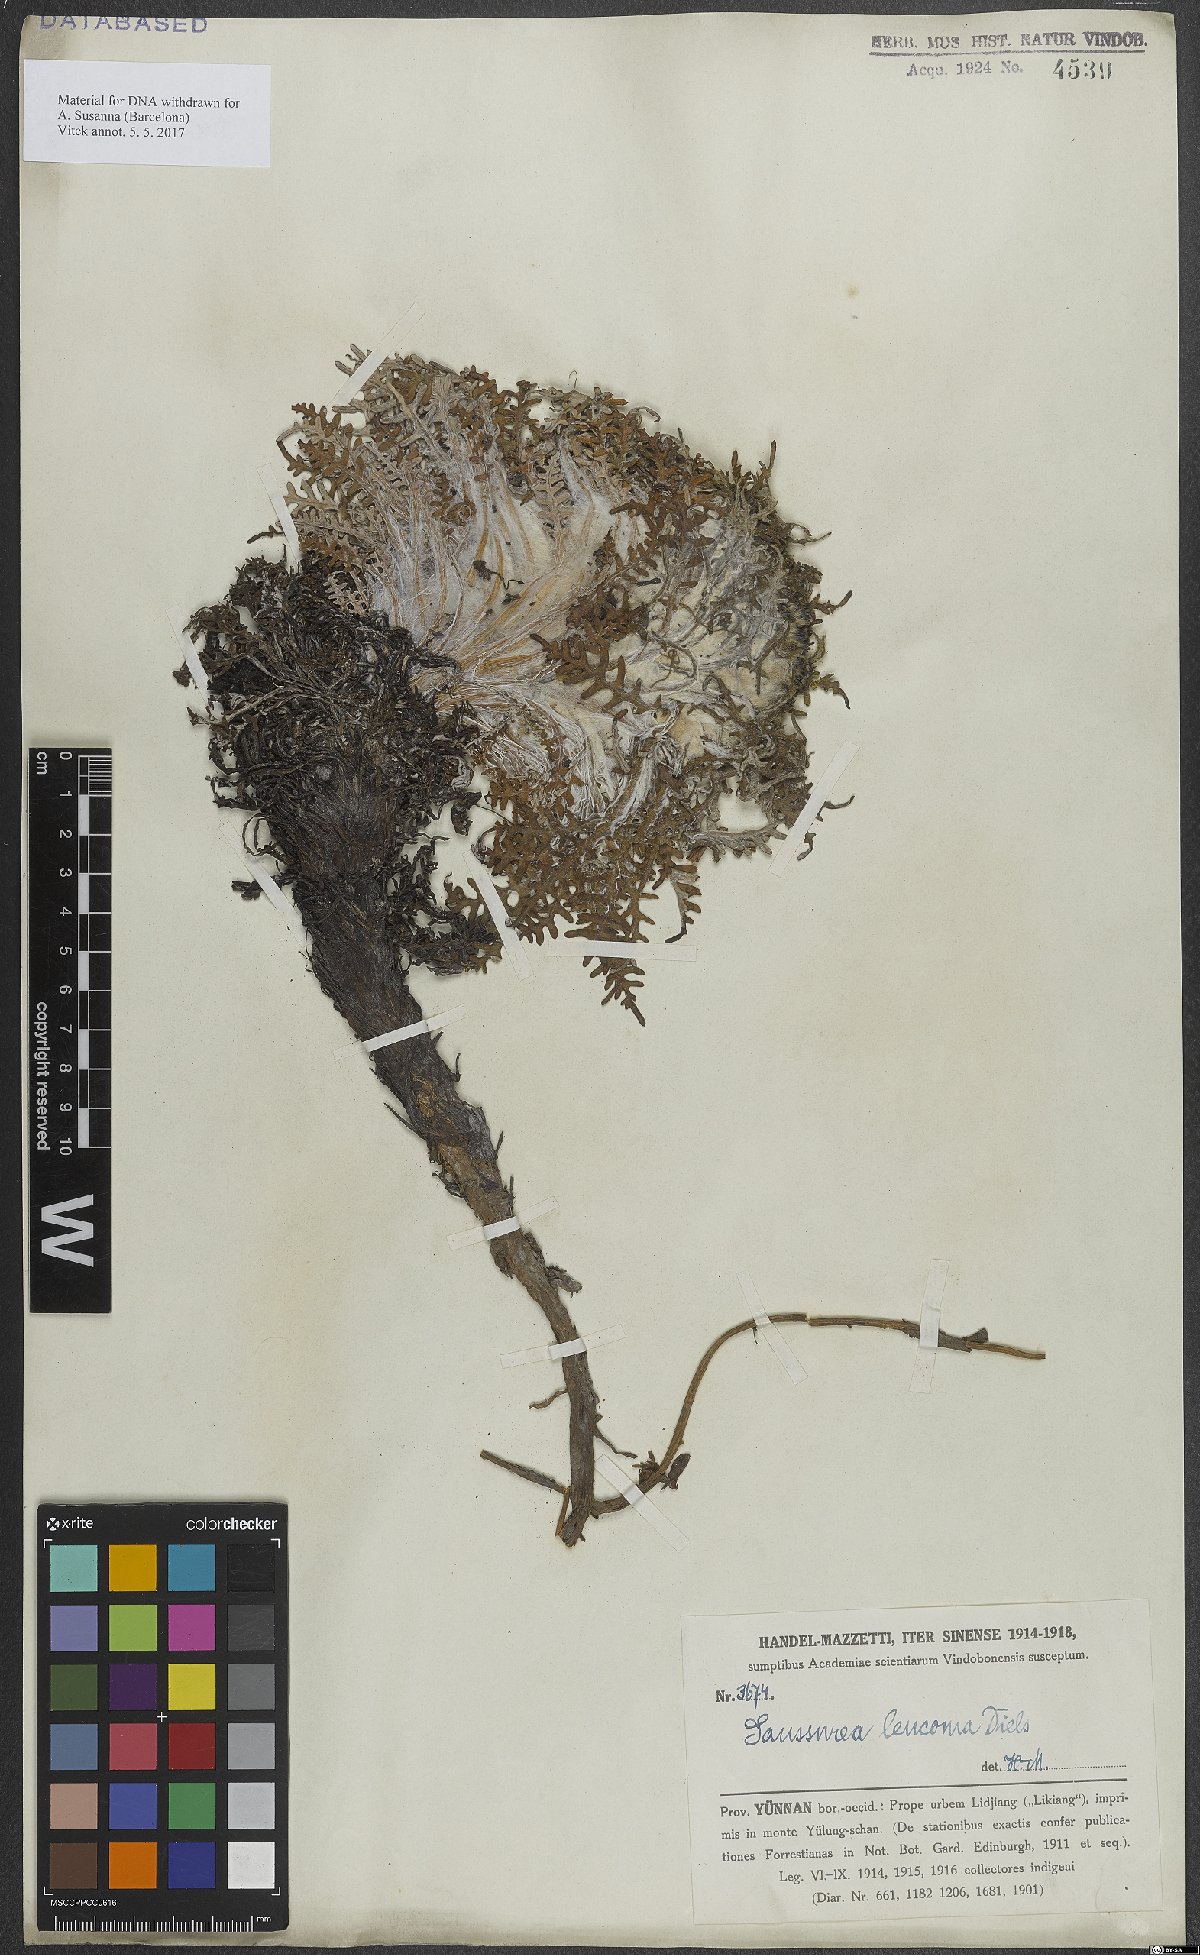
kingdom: Plantae
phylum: Tracheophyta
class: Magnoliopsida
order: Asterales
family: Asteraceae
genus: Saussurea
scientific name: Saussurea leucoma
